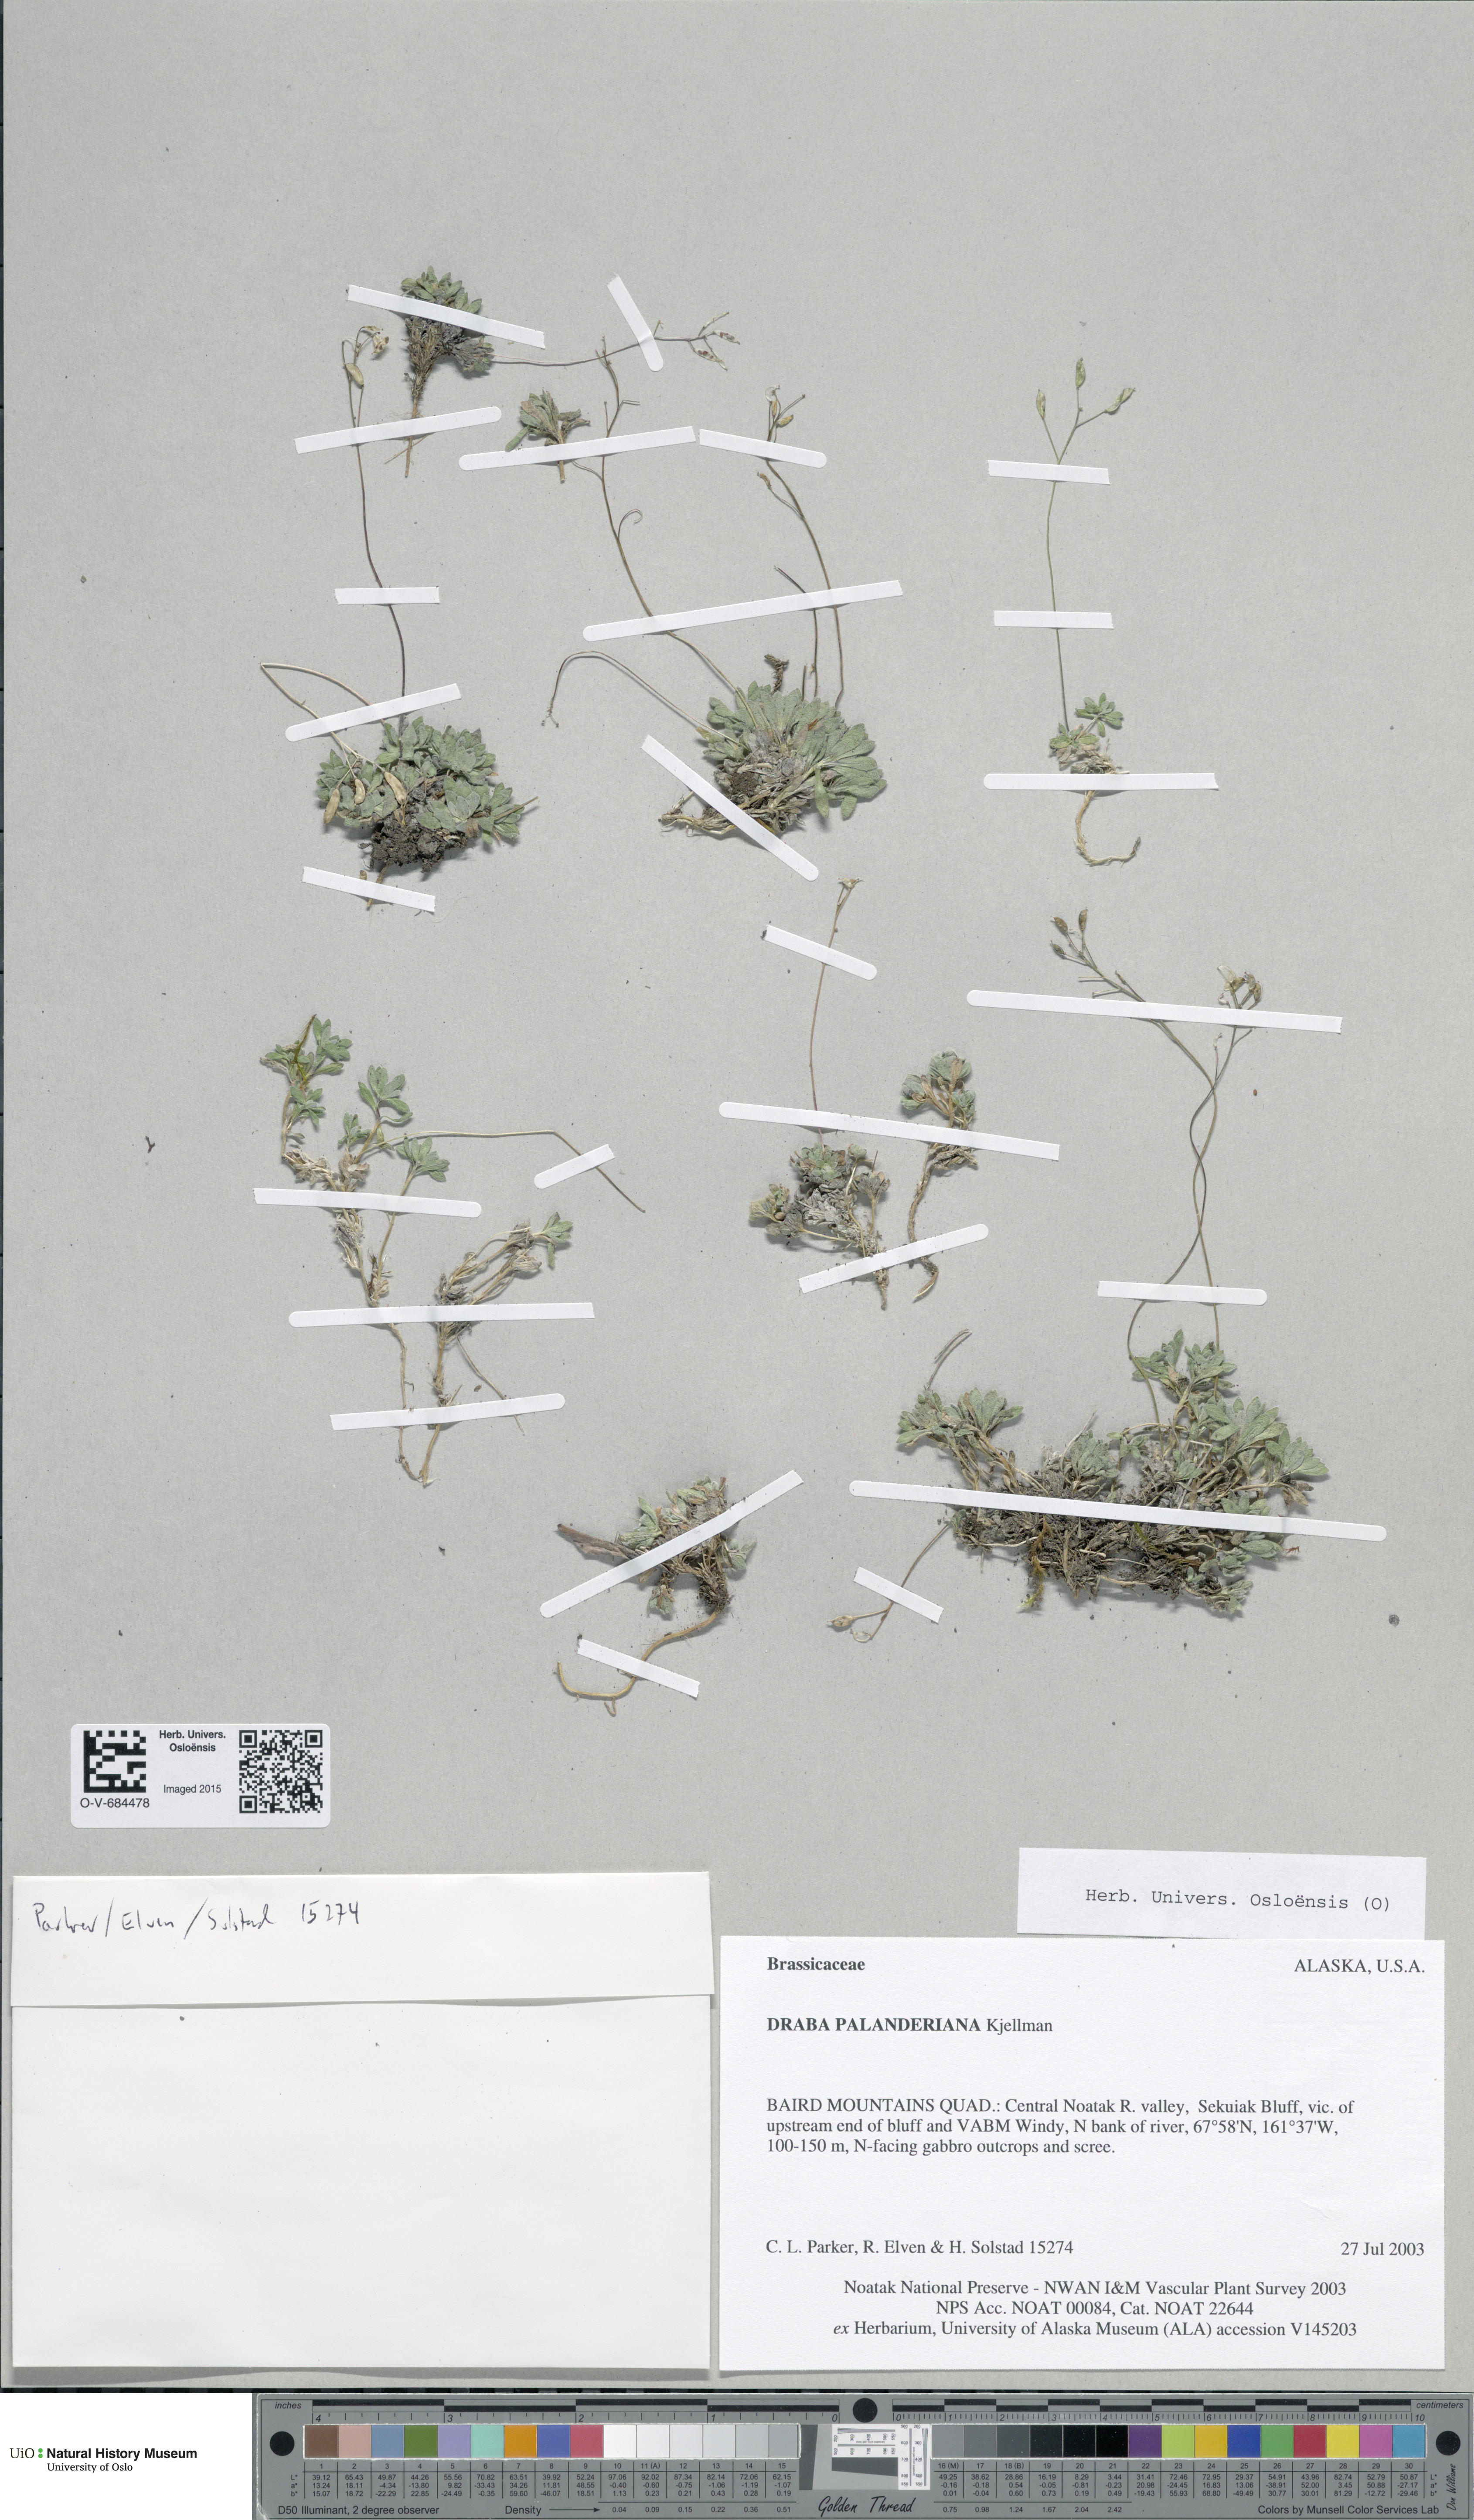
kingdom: Plantae
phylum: Tracheophyta
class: Magnoliopsida
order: Brassicales
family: Brassicaceae
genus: Draba
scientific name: Draba palanderiana
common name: Palander's draba
